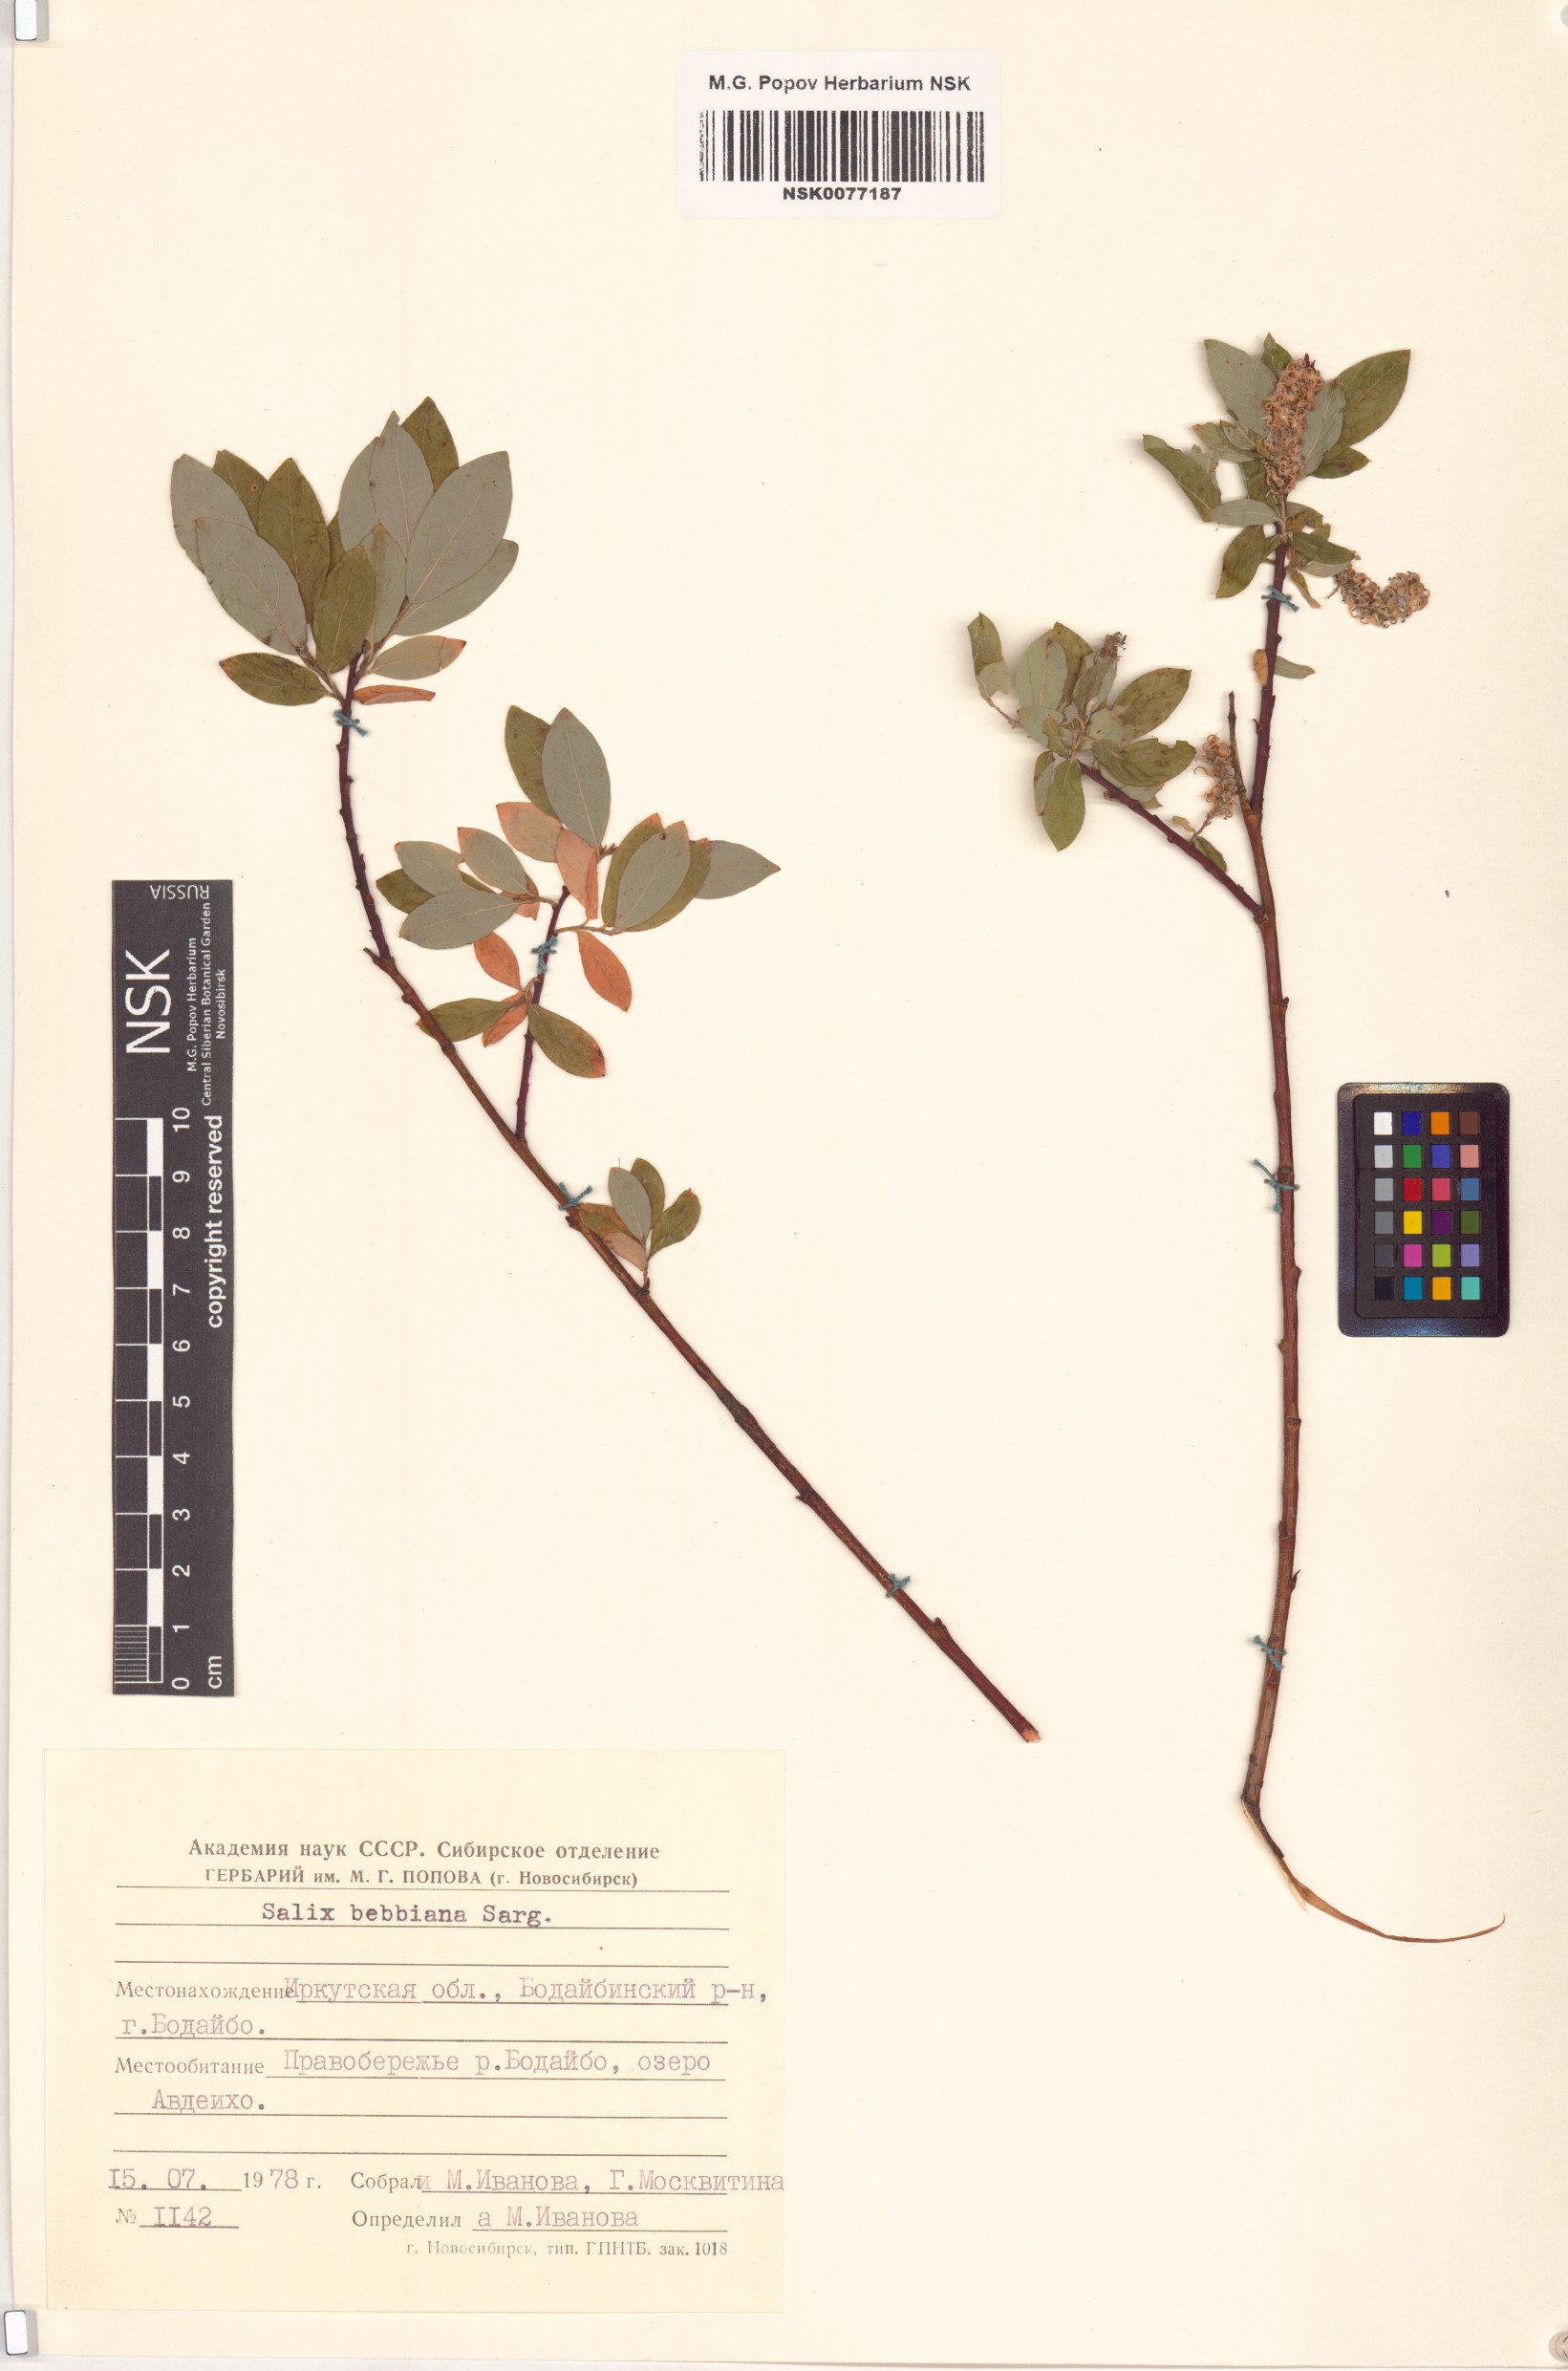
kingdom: Plantae
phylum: Tracheophyta
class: Magnoliopsida
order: Malpighiales
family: Salicaceae
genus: Salix
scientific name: Salix bebbiana
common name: Bebb's willow
